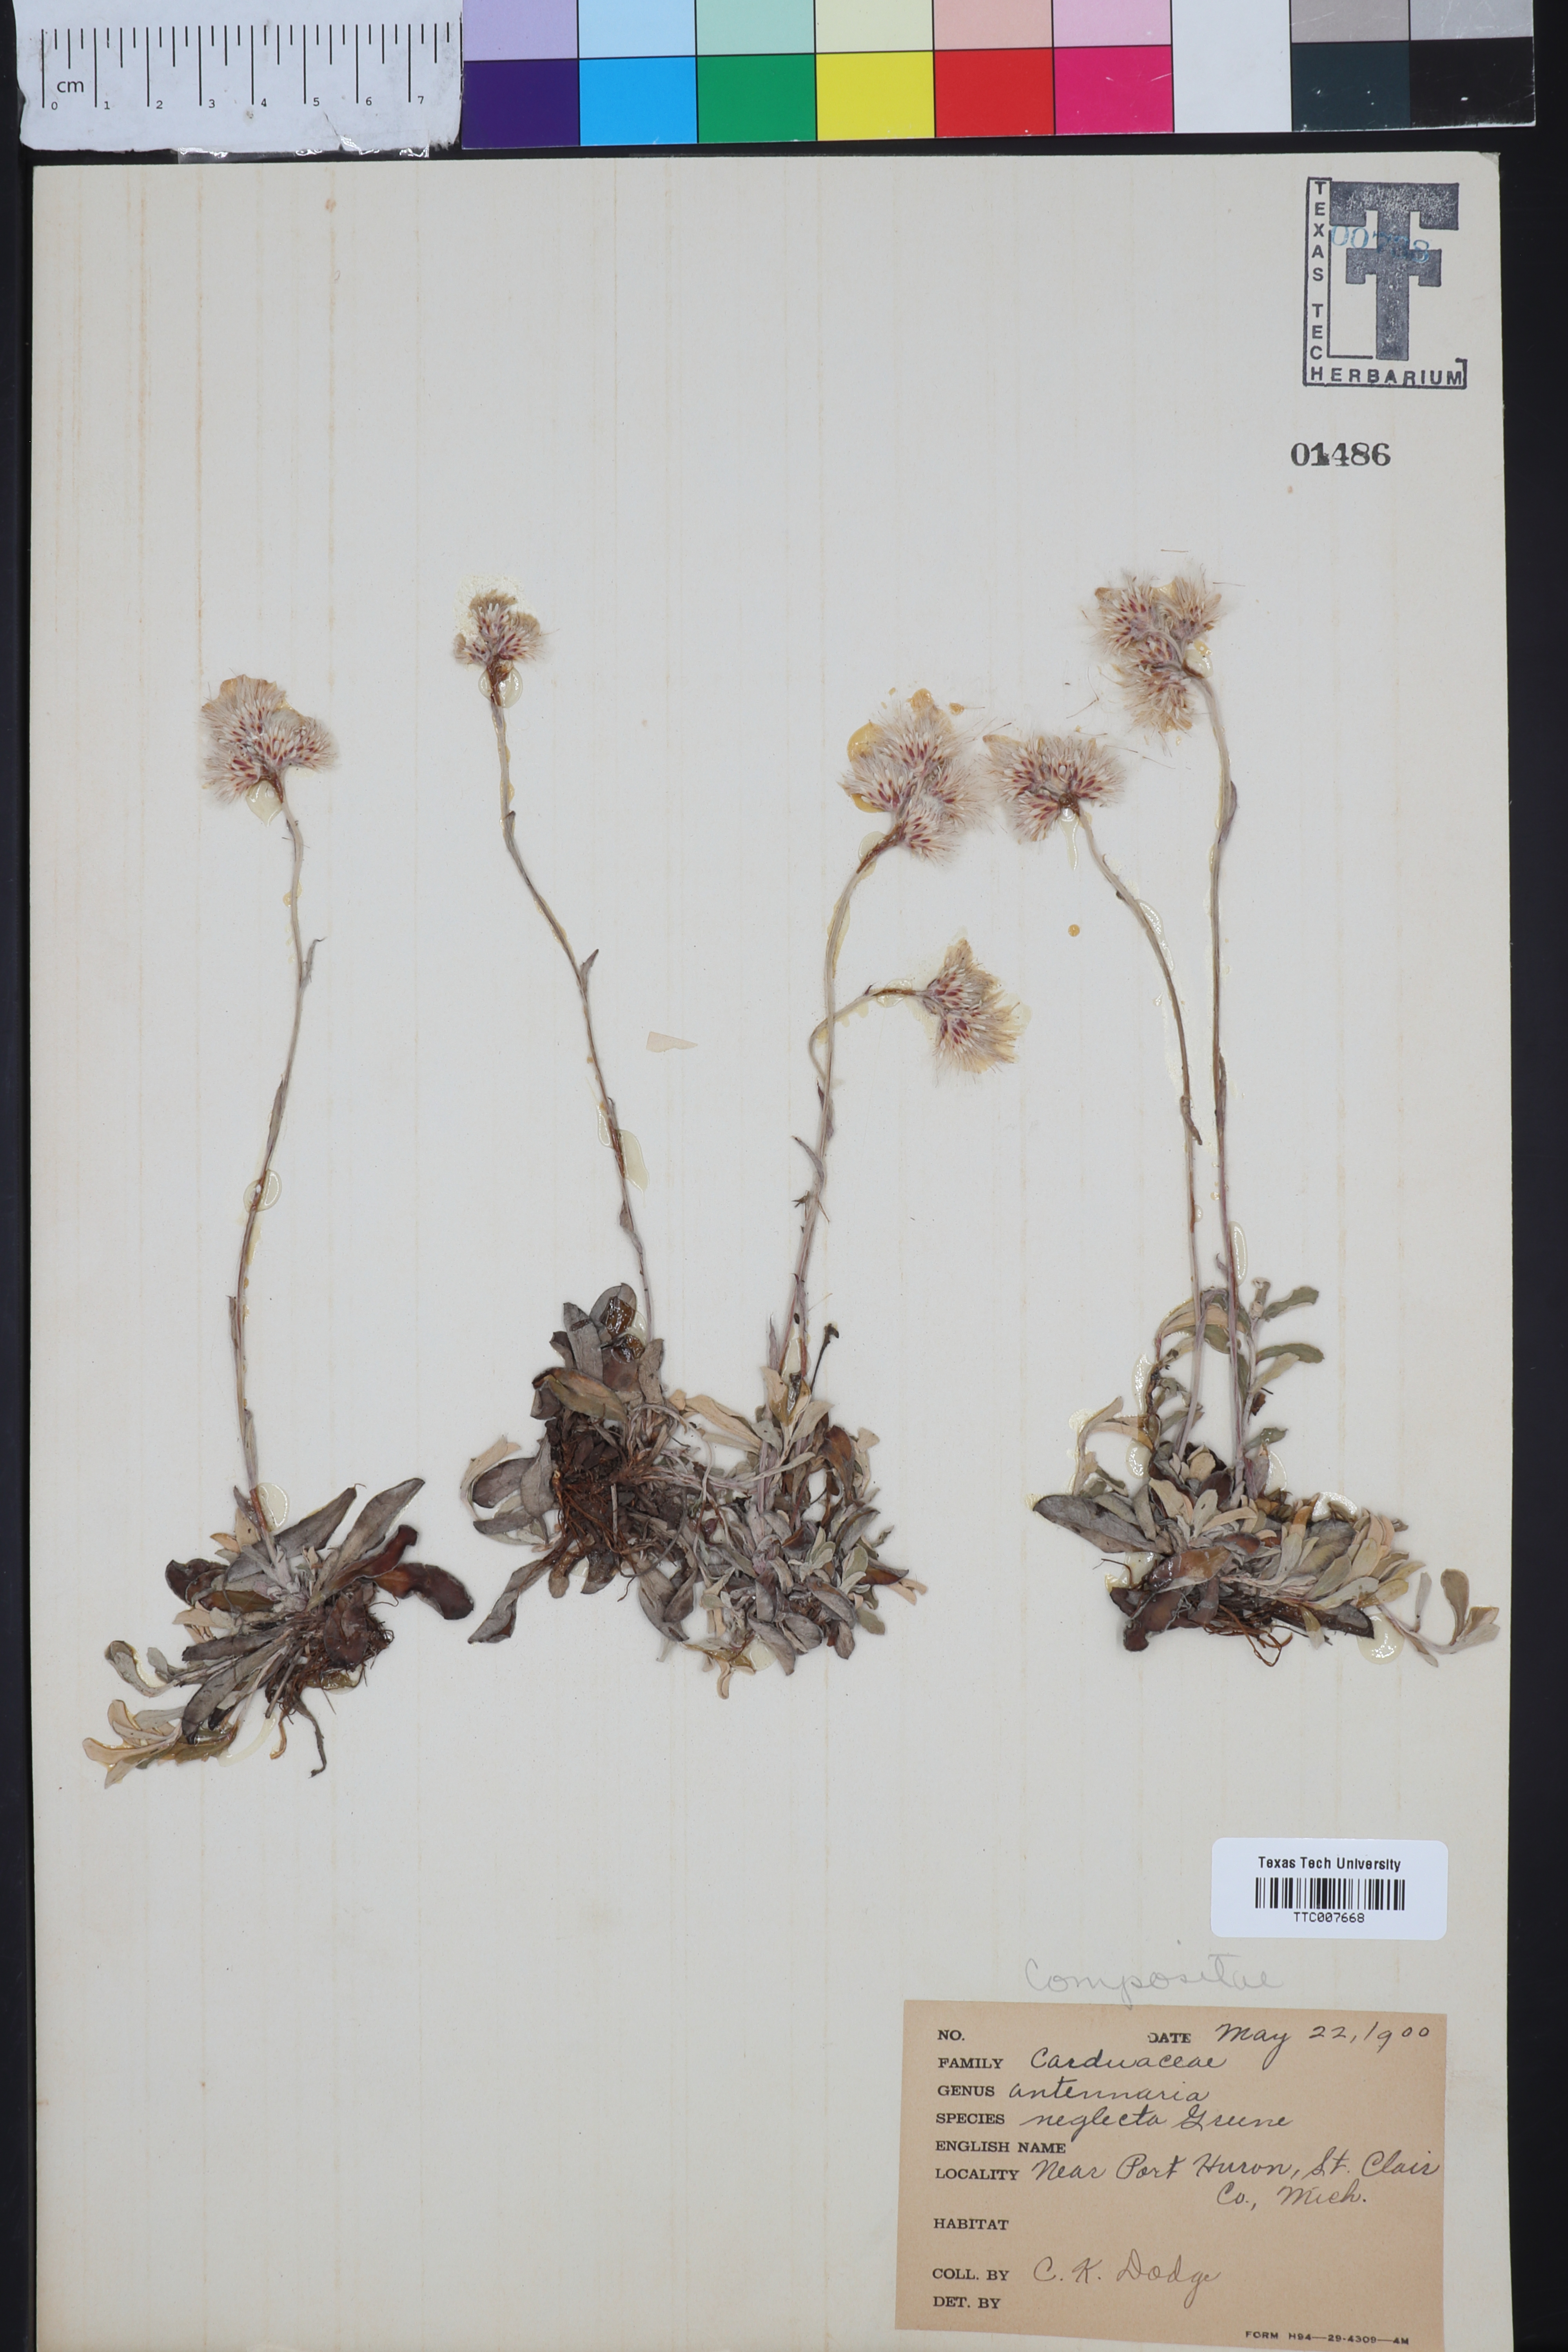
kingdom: Plantae
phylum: Tracheophyta
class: Magnoliopsida
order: Asterales
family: Asteraceae
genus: Antennaria
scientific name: Antennaria neglecta
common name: Field pussytoes
